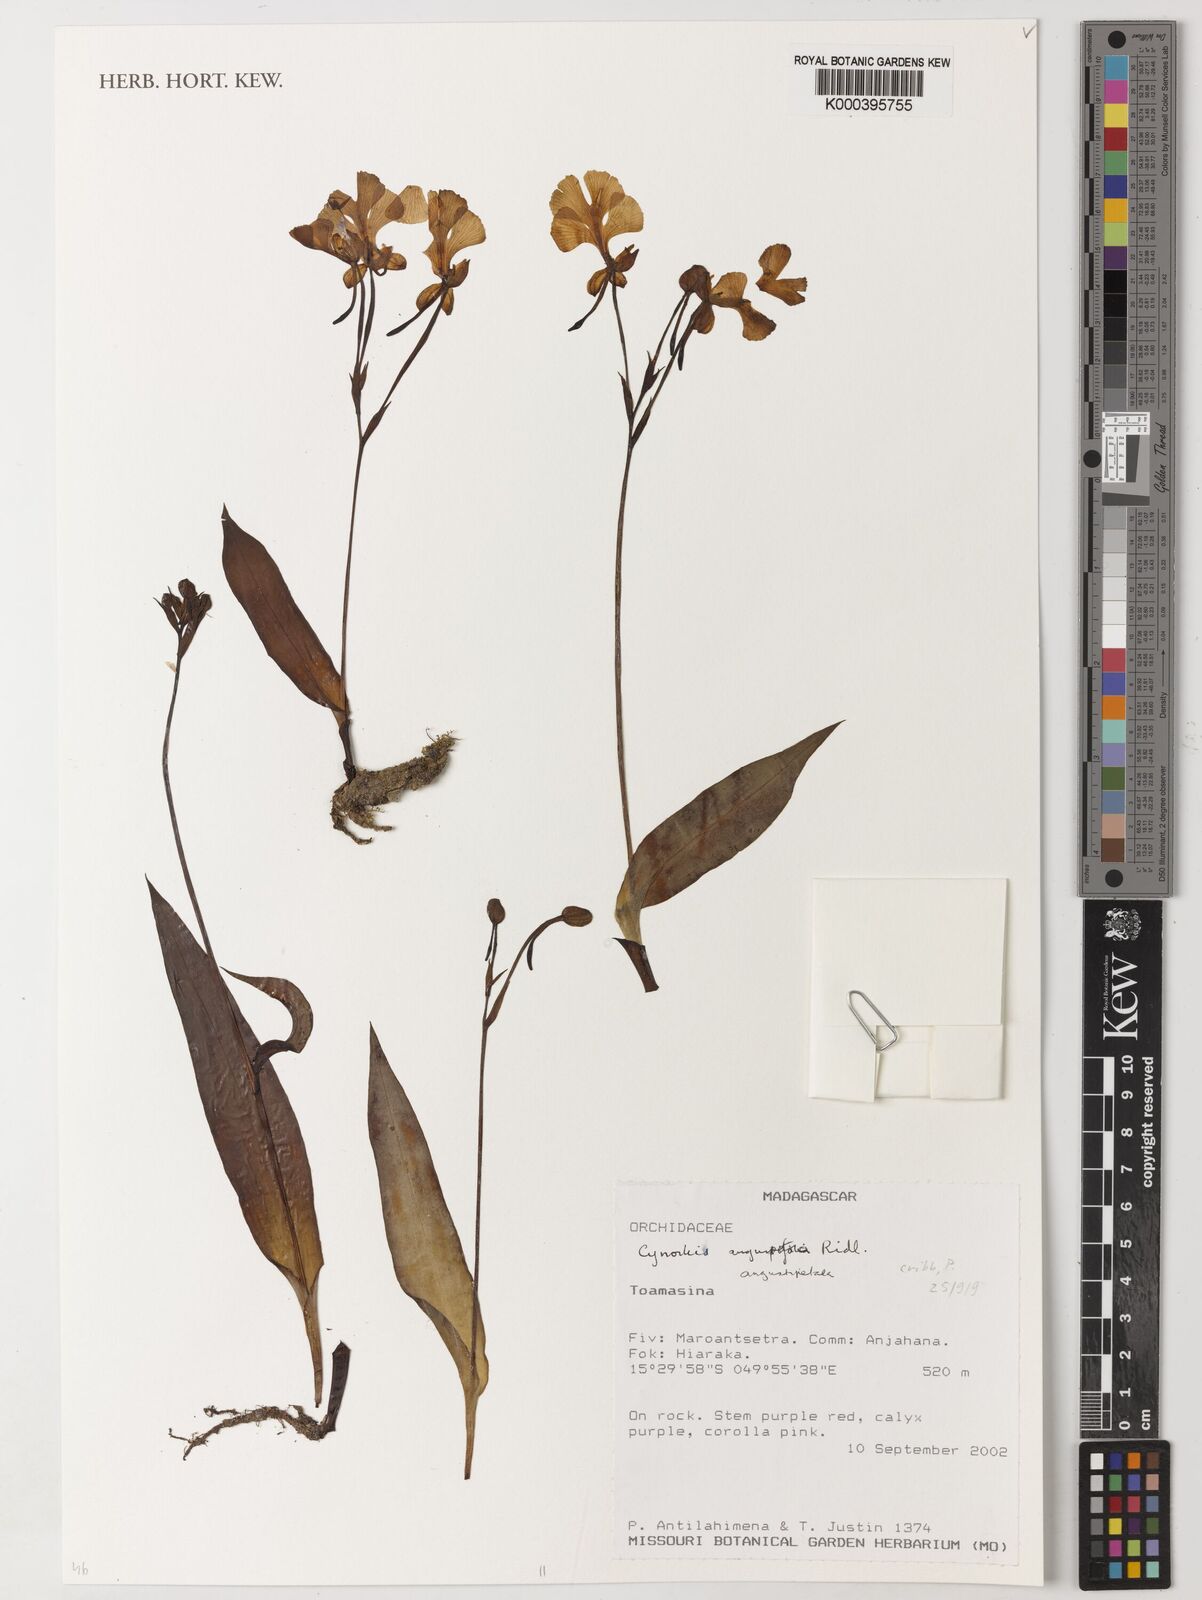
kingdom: Plantae
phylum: Tracheophyta
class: Liliopsida
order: Asparagales
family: Orchidaceae
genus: Cynorkis
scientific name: Cynorkis
